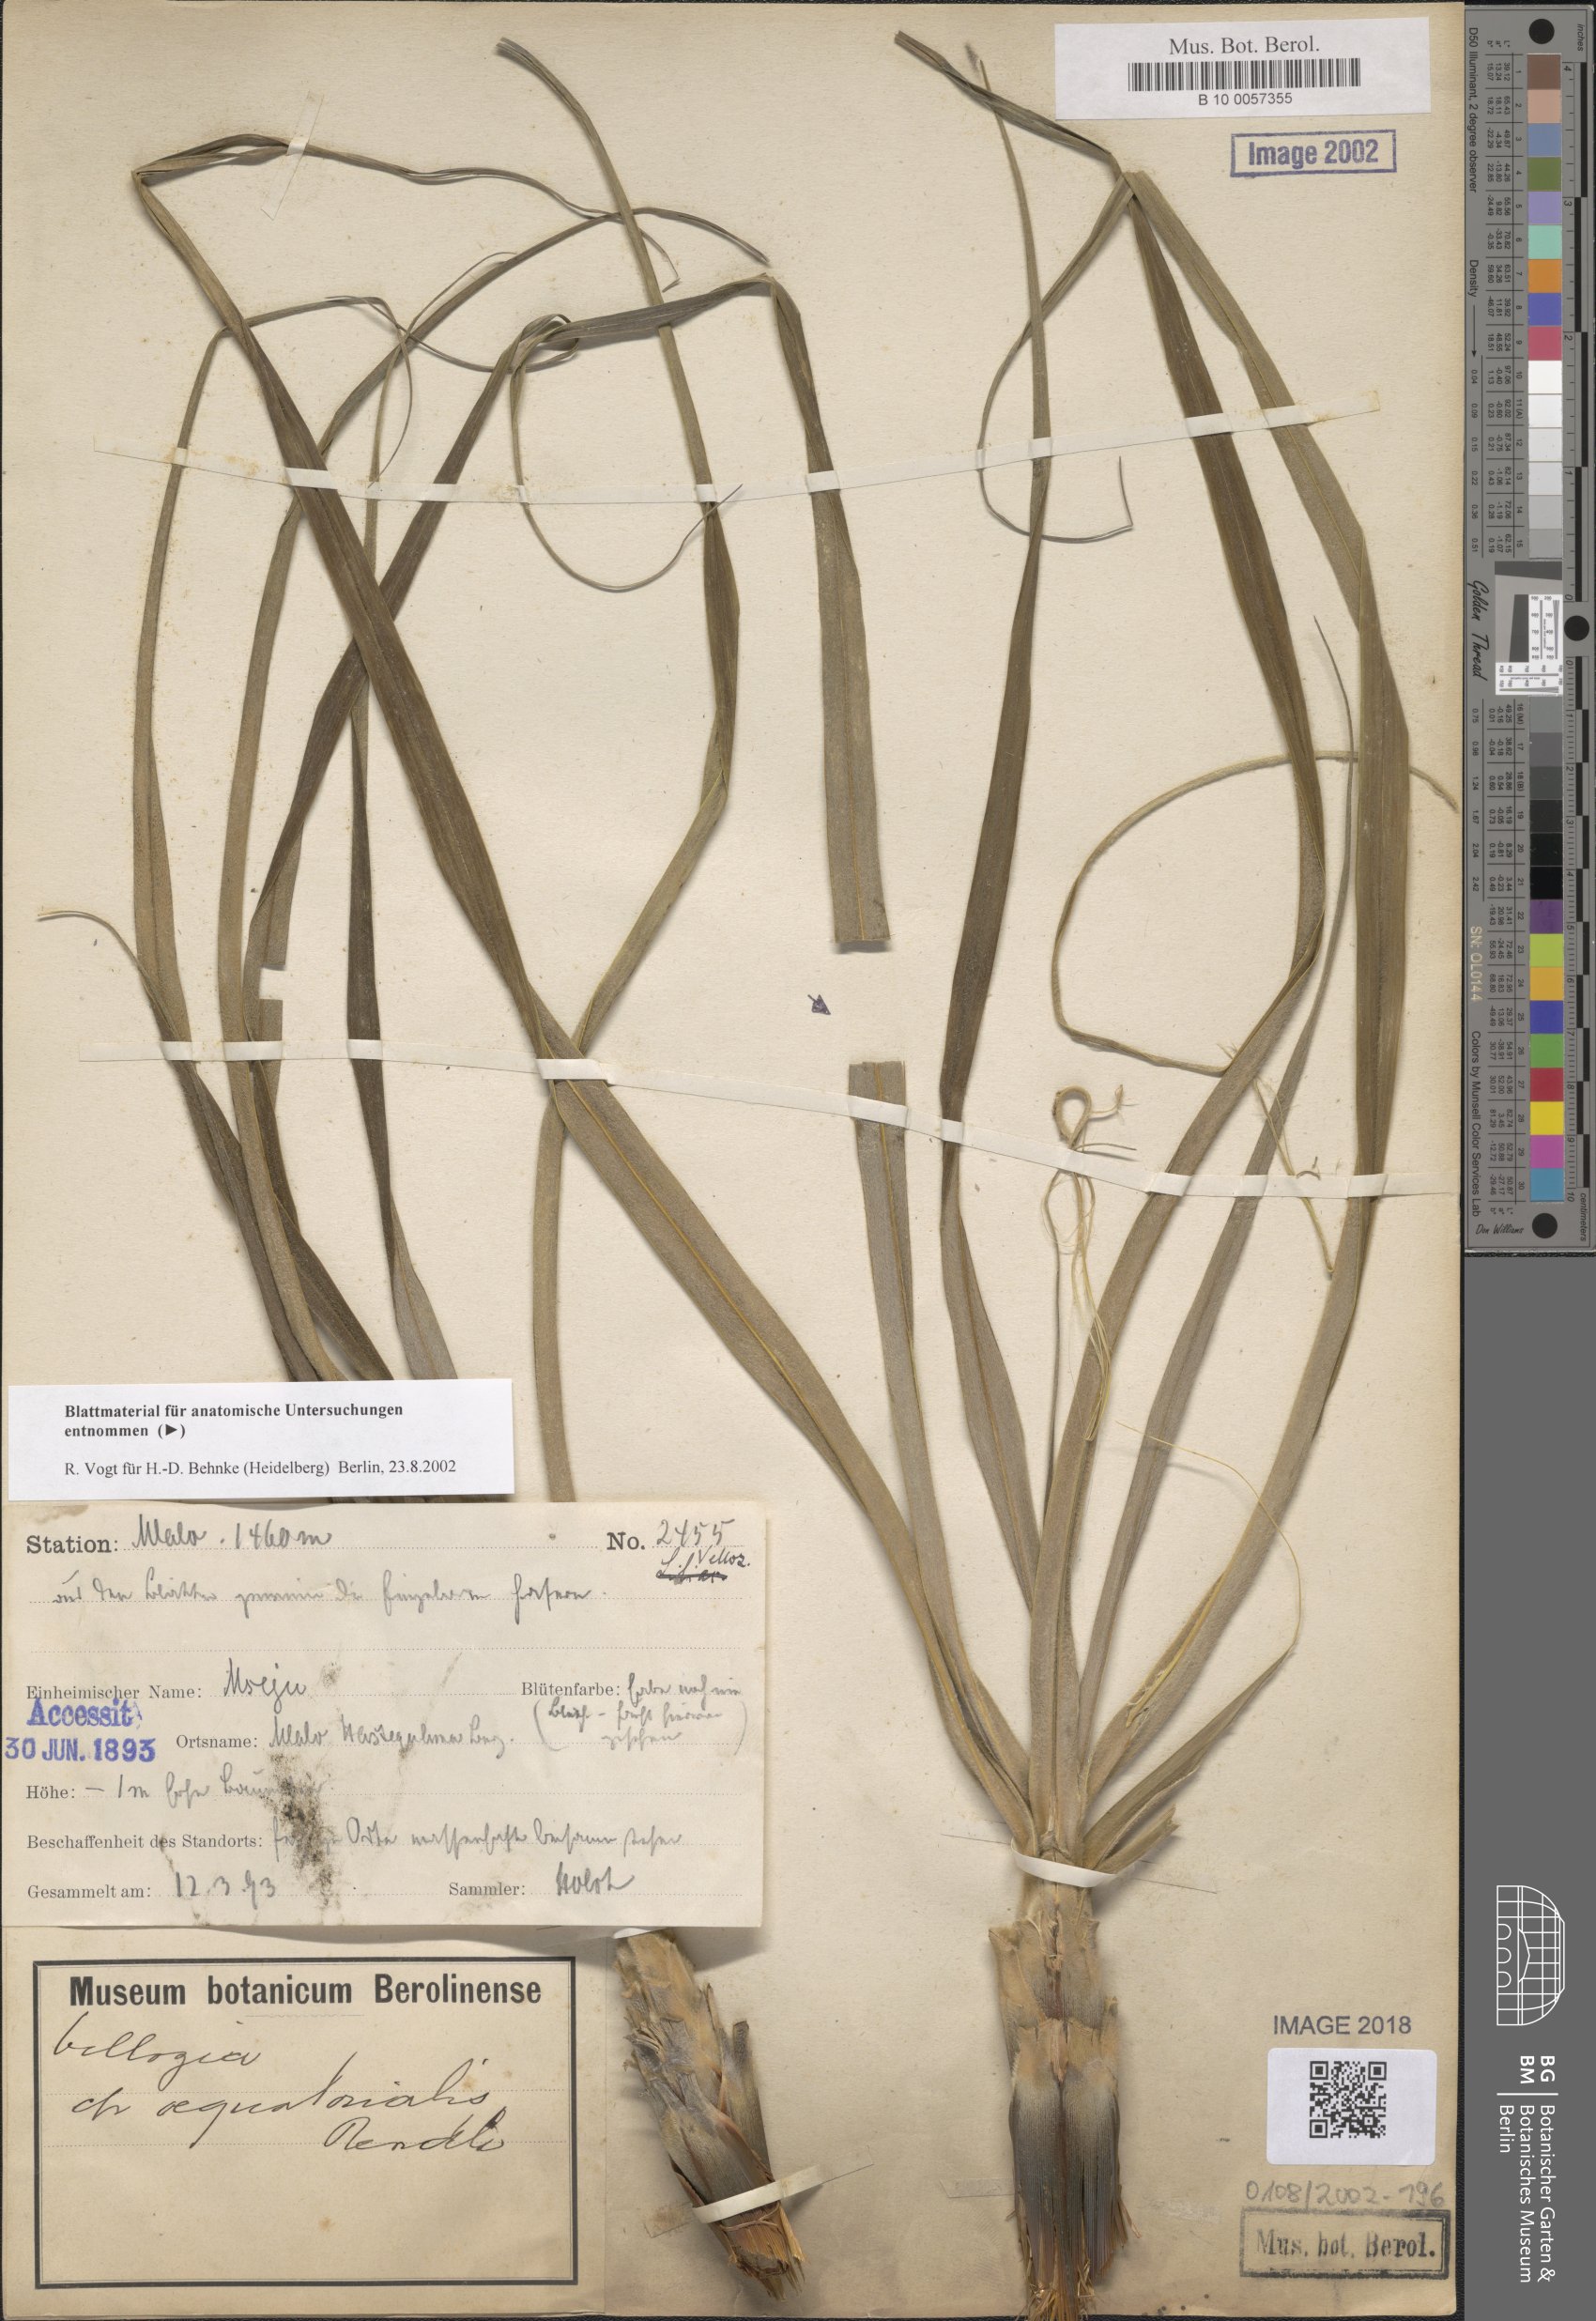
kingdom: Plantae
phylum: Tracheophyta
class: Liliopsida
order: Pandanales
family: Velloziaceae
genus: Xerophyta
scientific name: Xerophyta spekei
